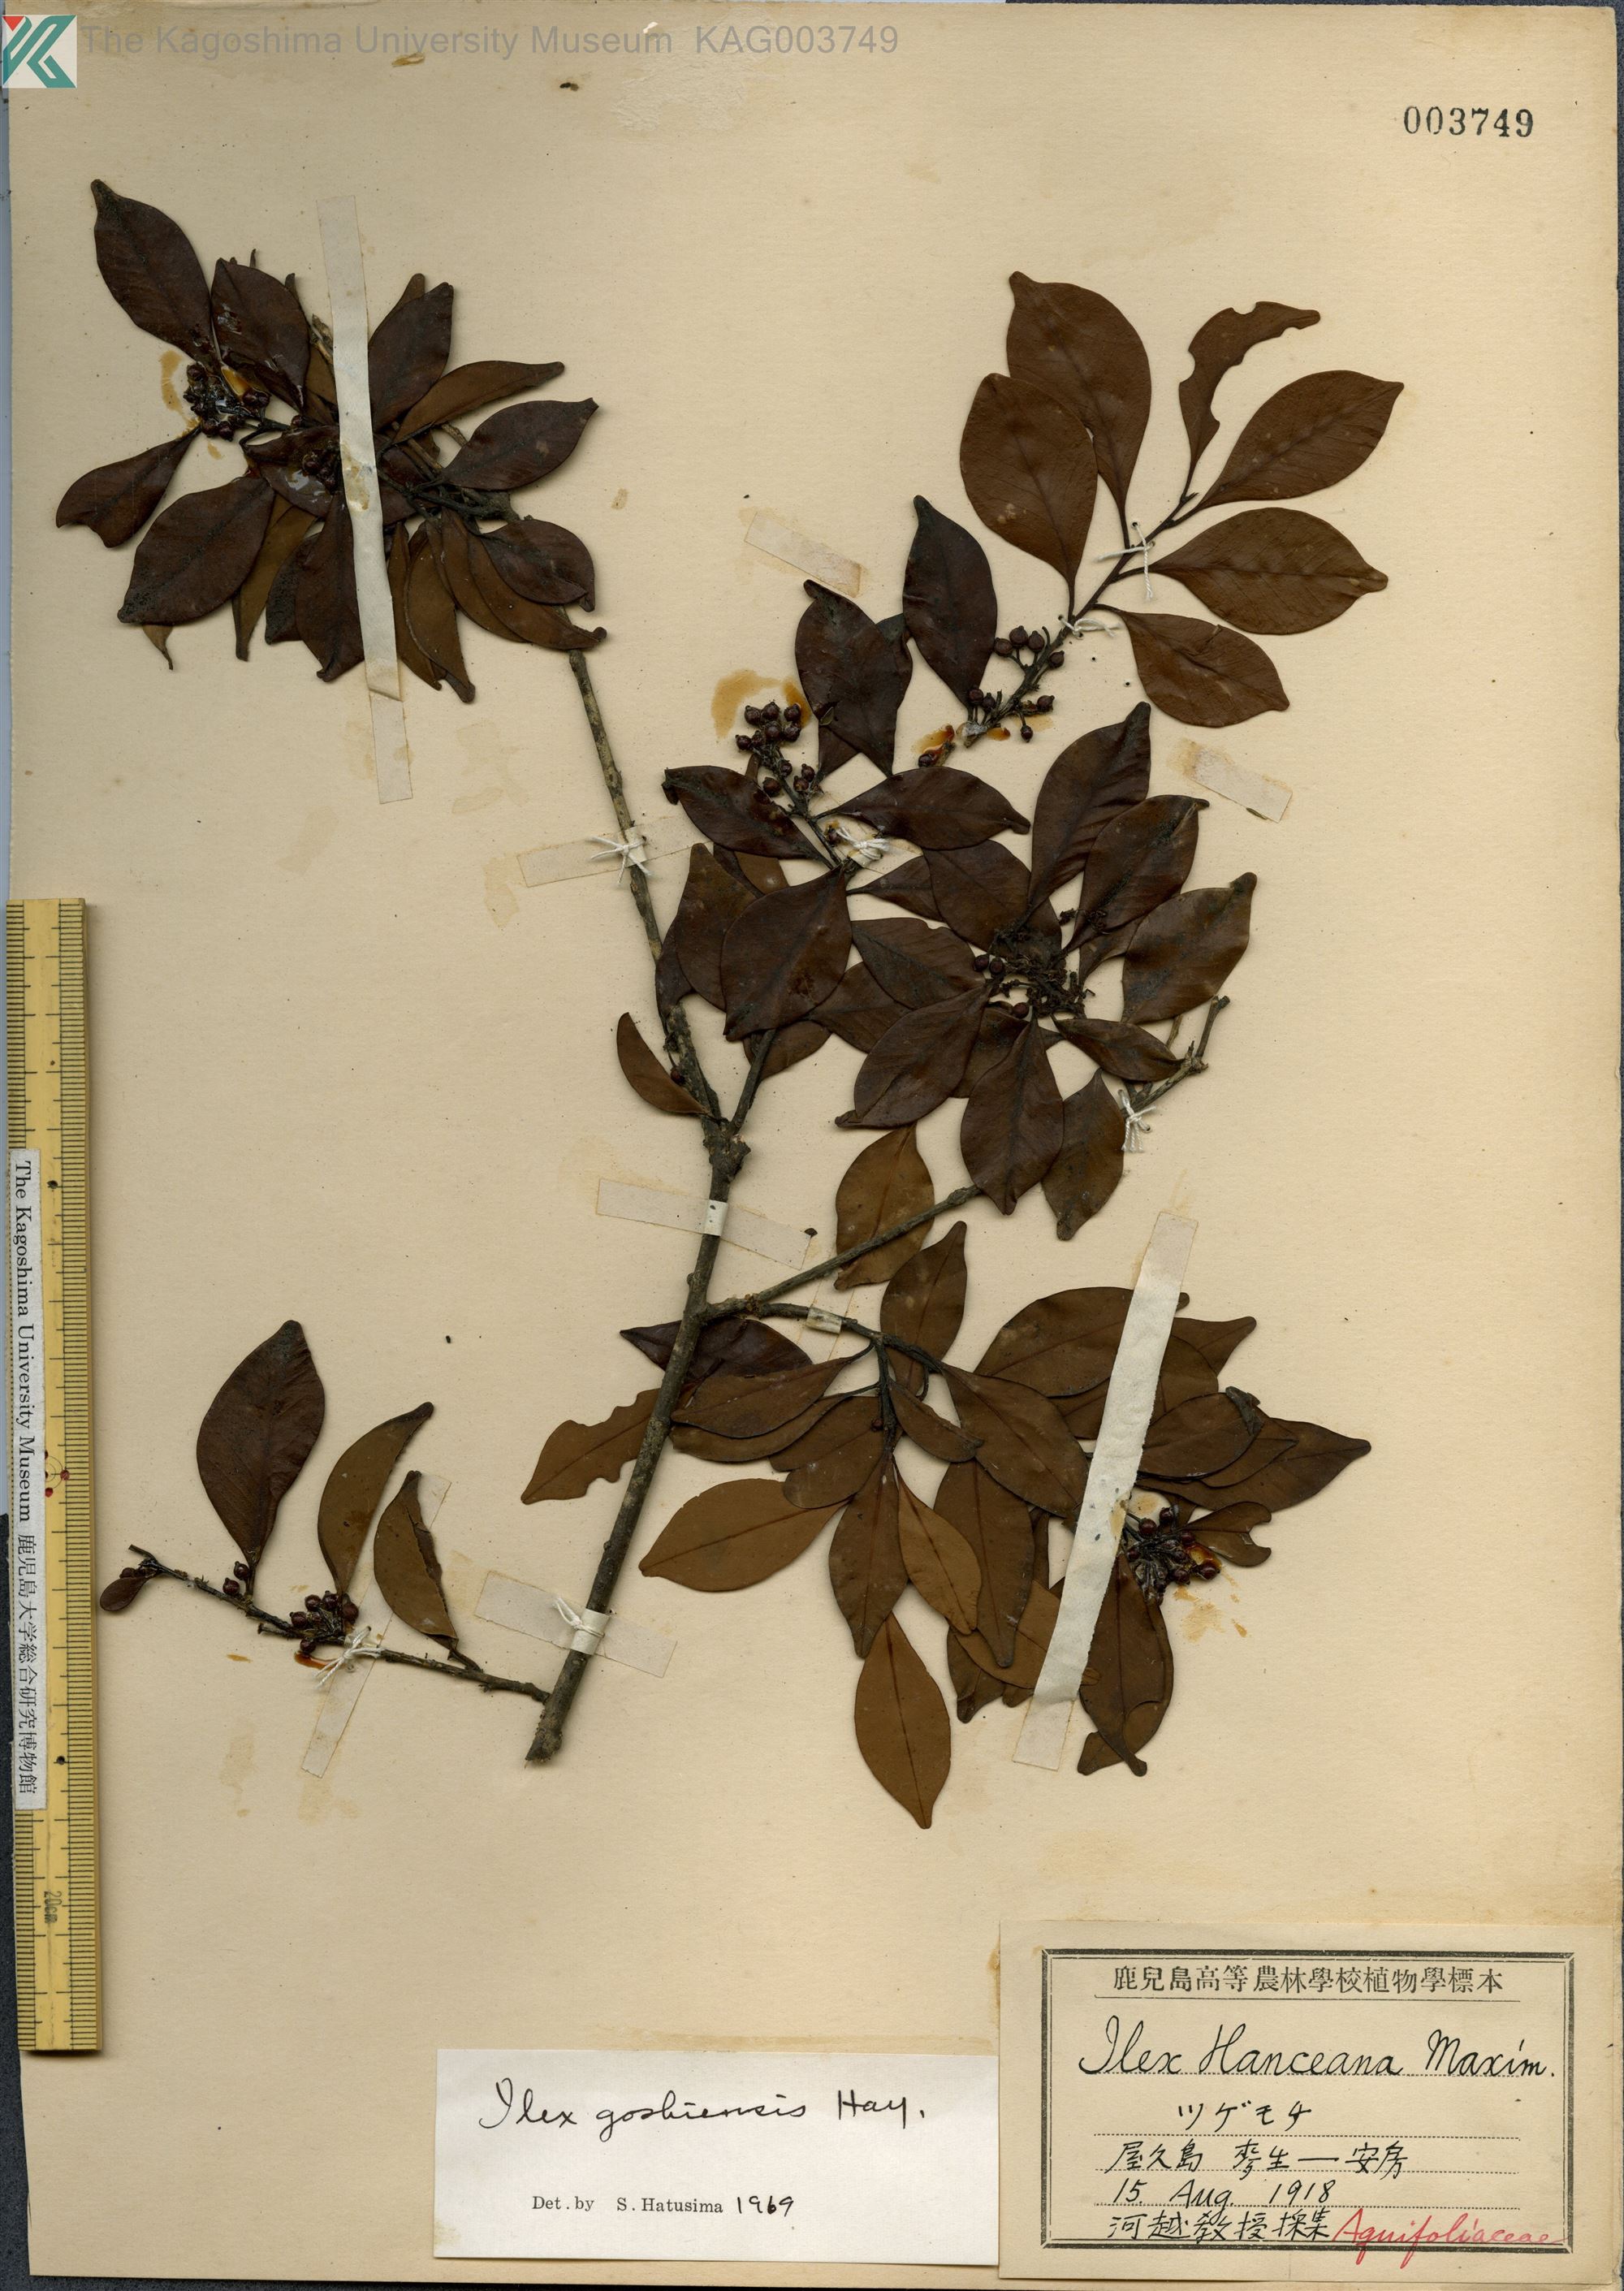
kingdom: Plantae
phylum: Tracheophyta
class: Magnoliopsida
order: Aquifoliales
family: Aquifoliaceae
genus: Ilex
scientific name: Ilex goshiensis
